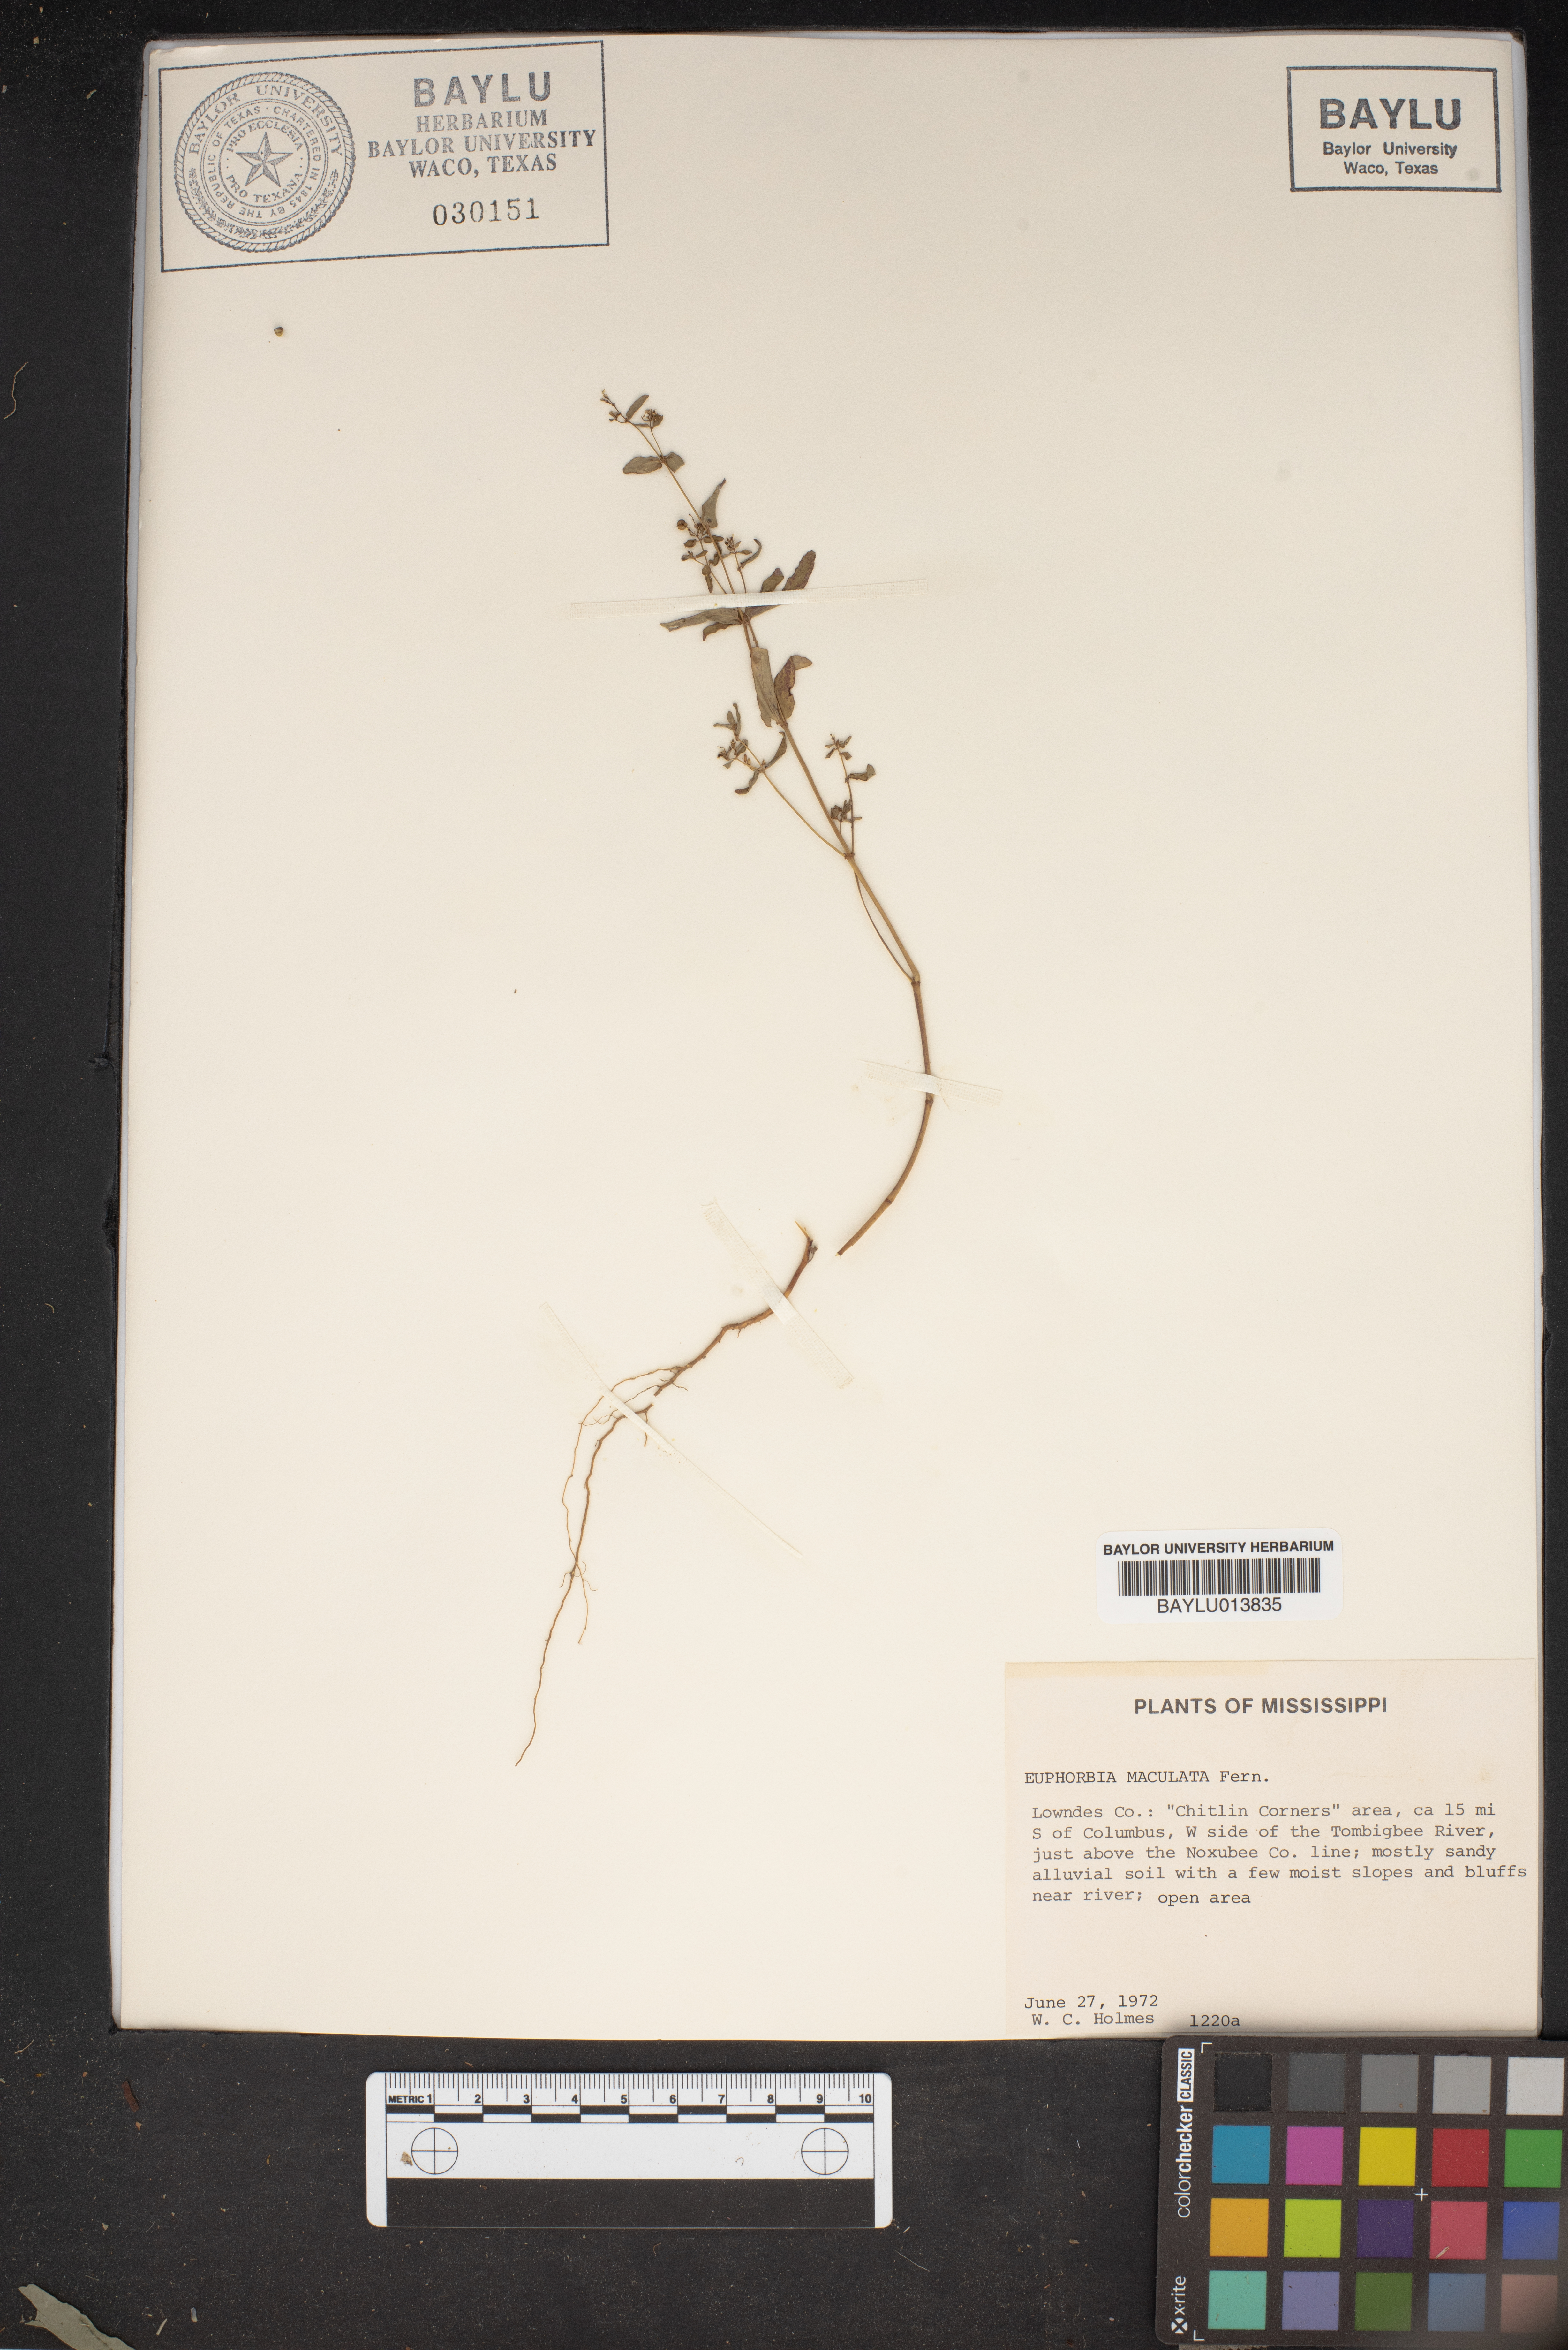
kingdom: Plantae
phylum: Tracheophyta
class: Magnoliopsida
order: Malpighiales
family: Euphorbiaceae
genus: Euphorbia
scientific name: Euphorbia maculata
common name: Spotted spurge
